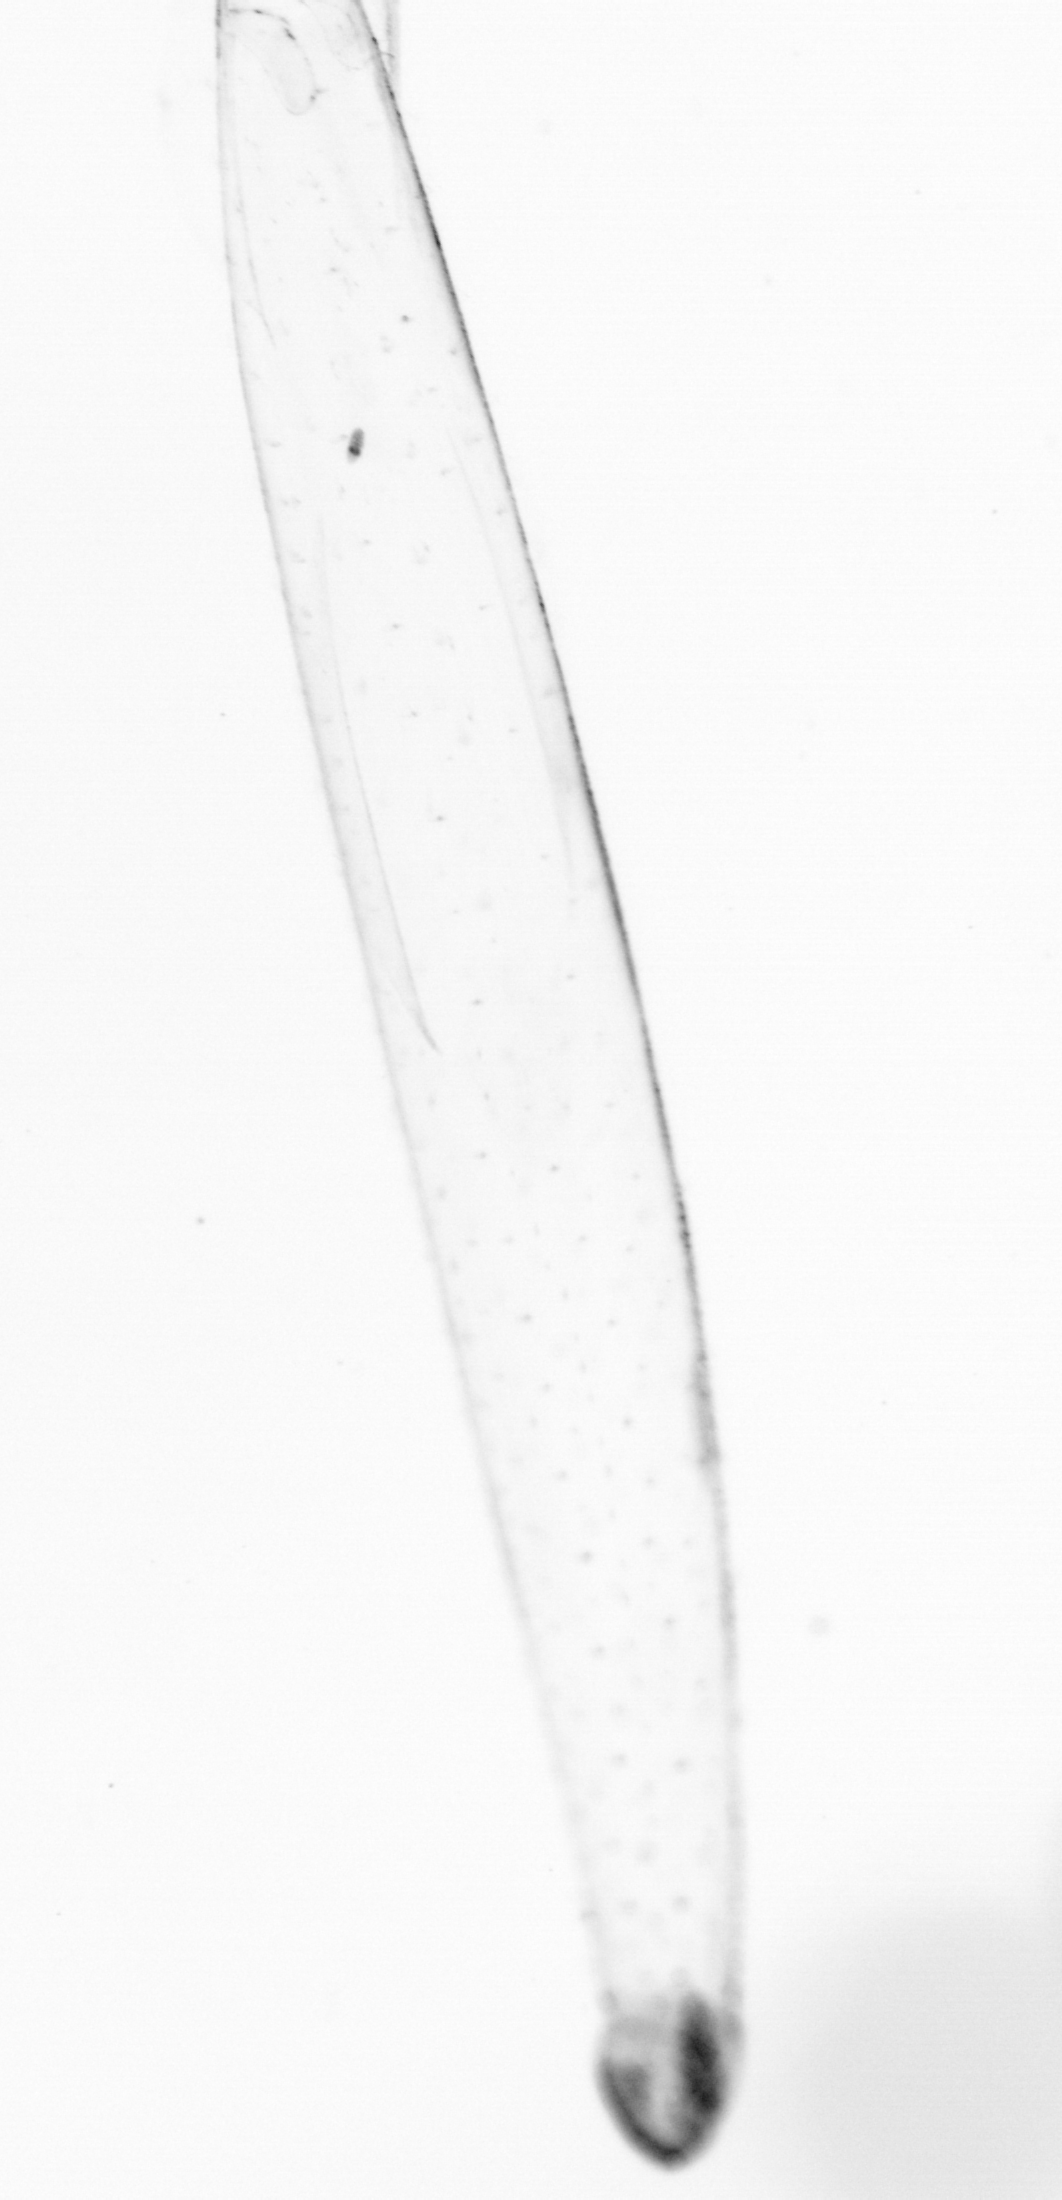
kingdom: Animalia
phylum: Chaetognatha
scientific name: Chaetognatha
